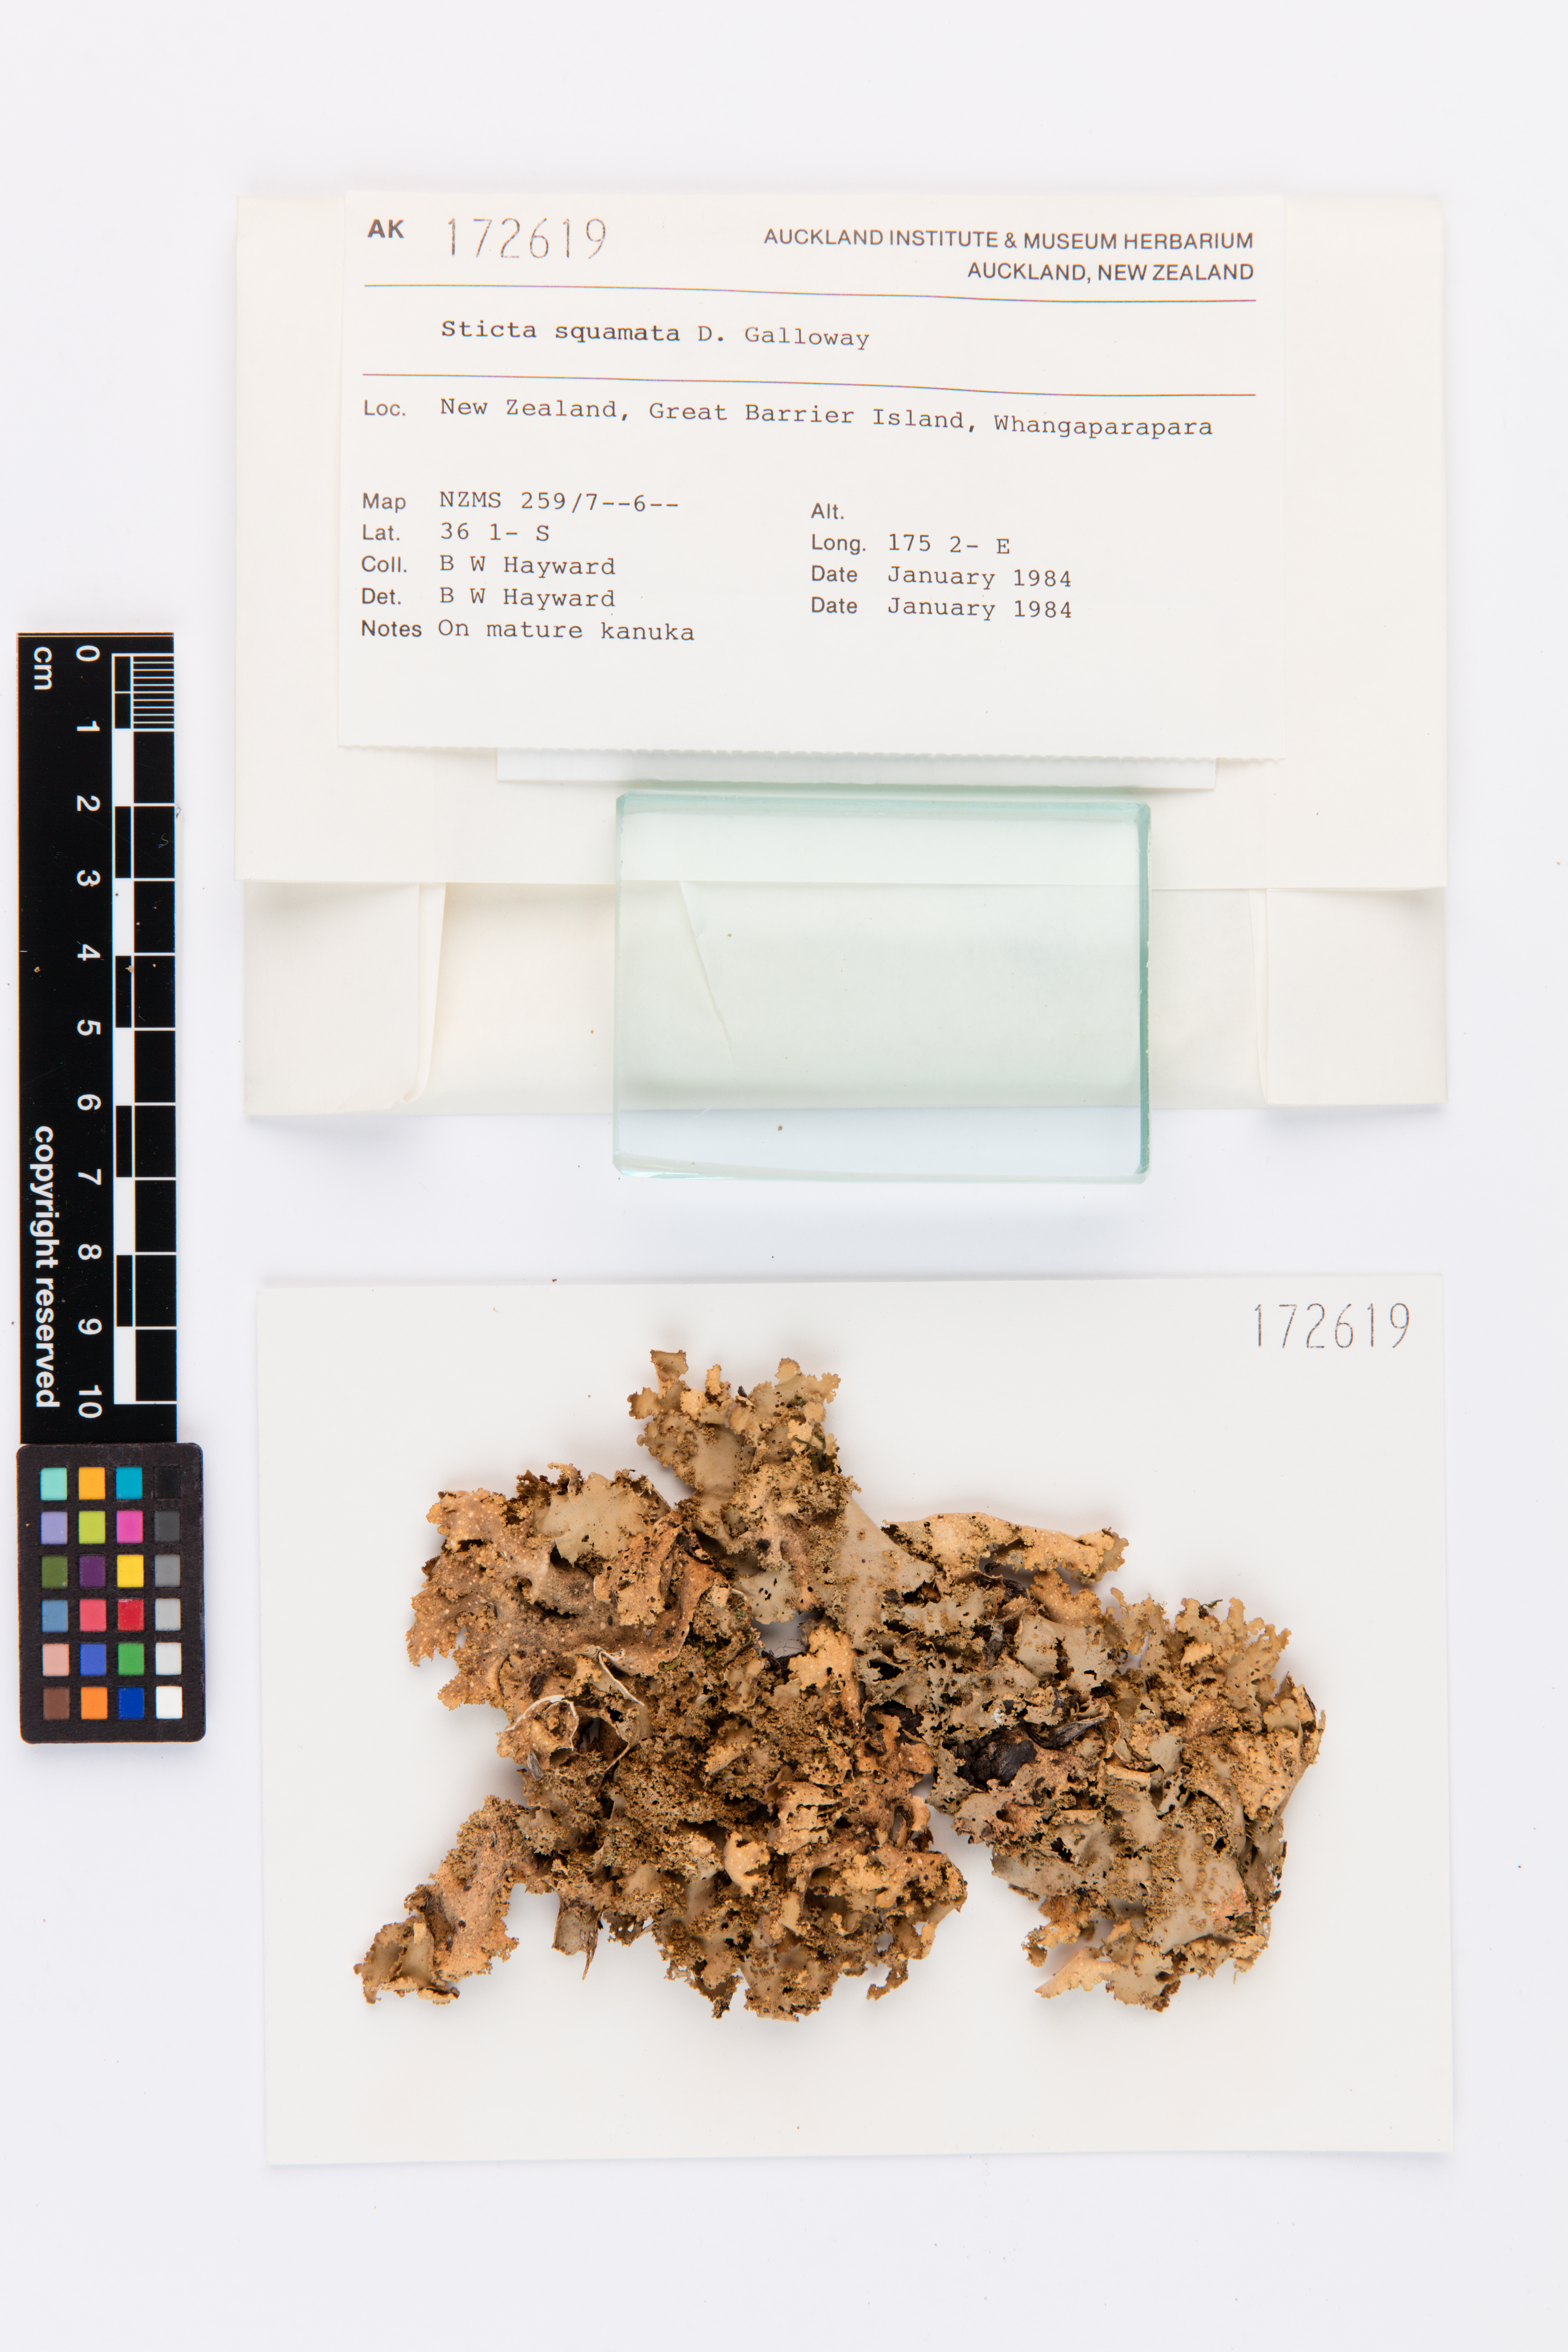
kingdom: Fungi
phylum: Ascomycota
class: Lecanoromycetes
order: Peltigerales
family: Lobariaceae
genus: Sticta
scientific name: Sticta squamata
